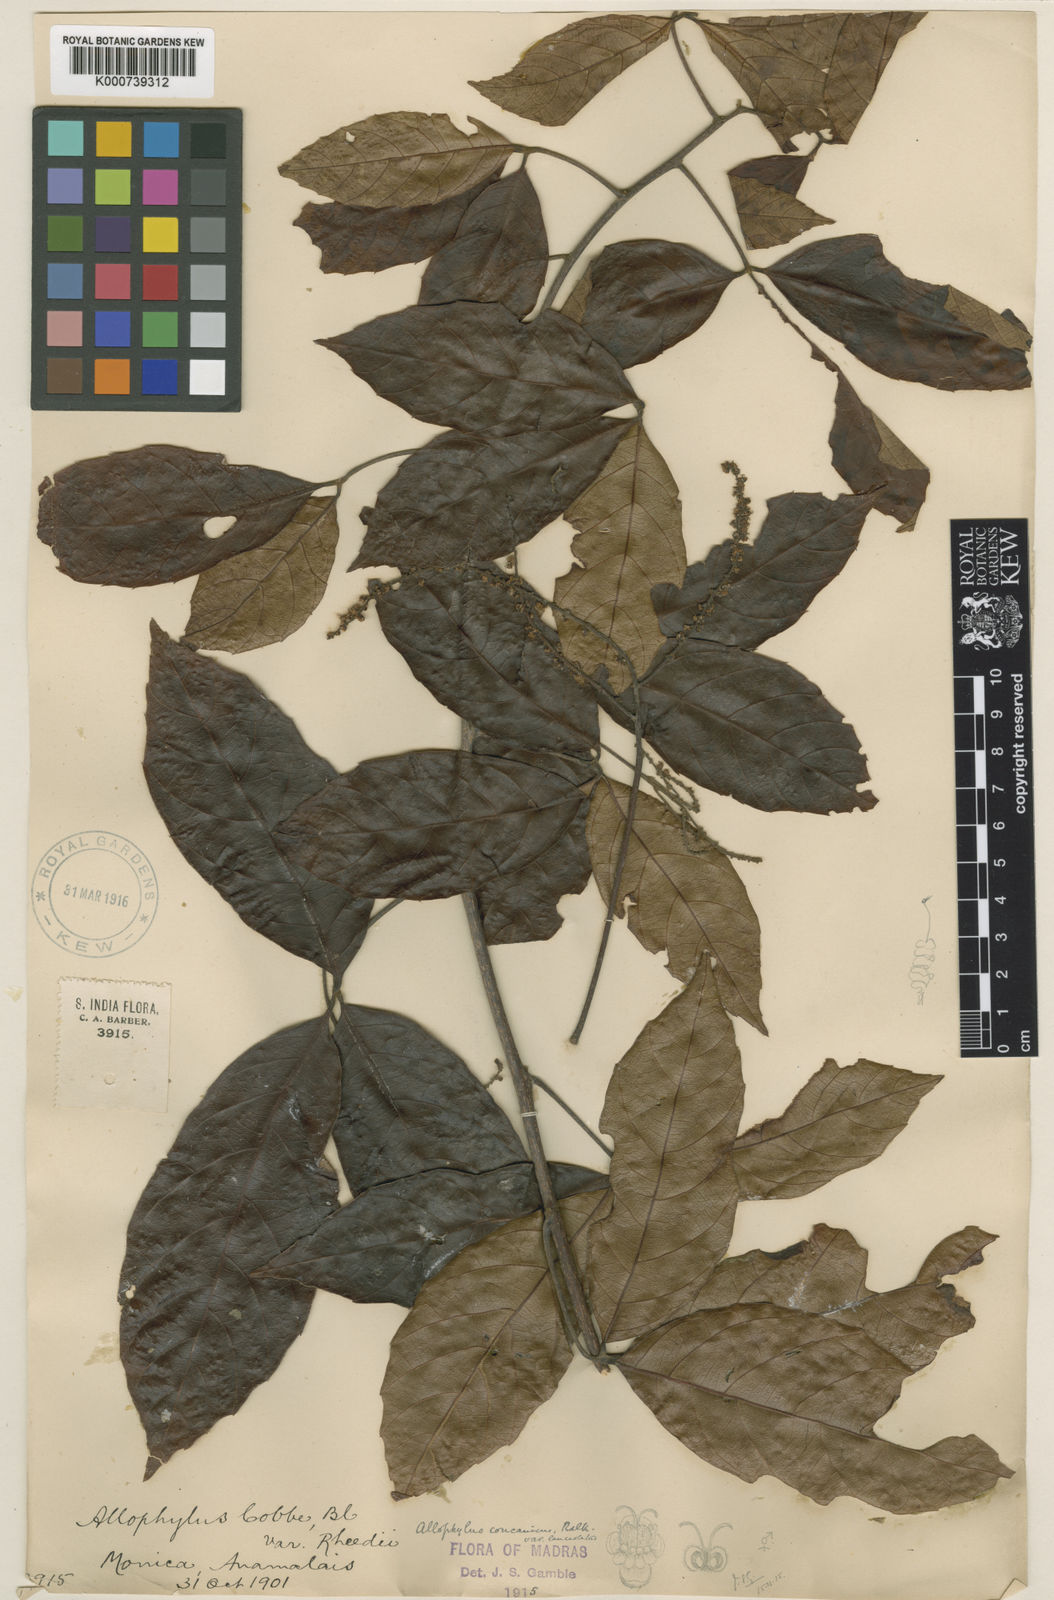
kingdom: Plantae
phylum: Tracheophyta
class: Magnoliopsida
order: Sapindales
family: Sapindaceae
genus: Allophylus
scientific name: Allophylus concanicus
